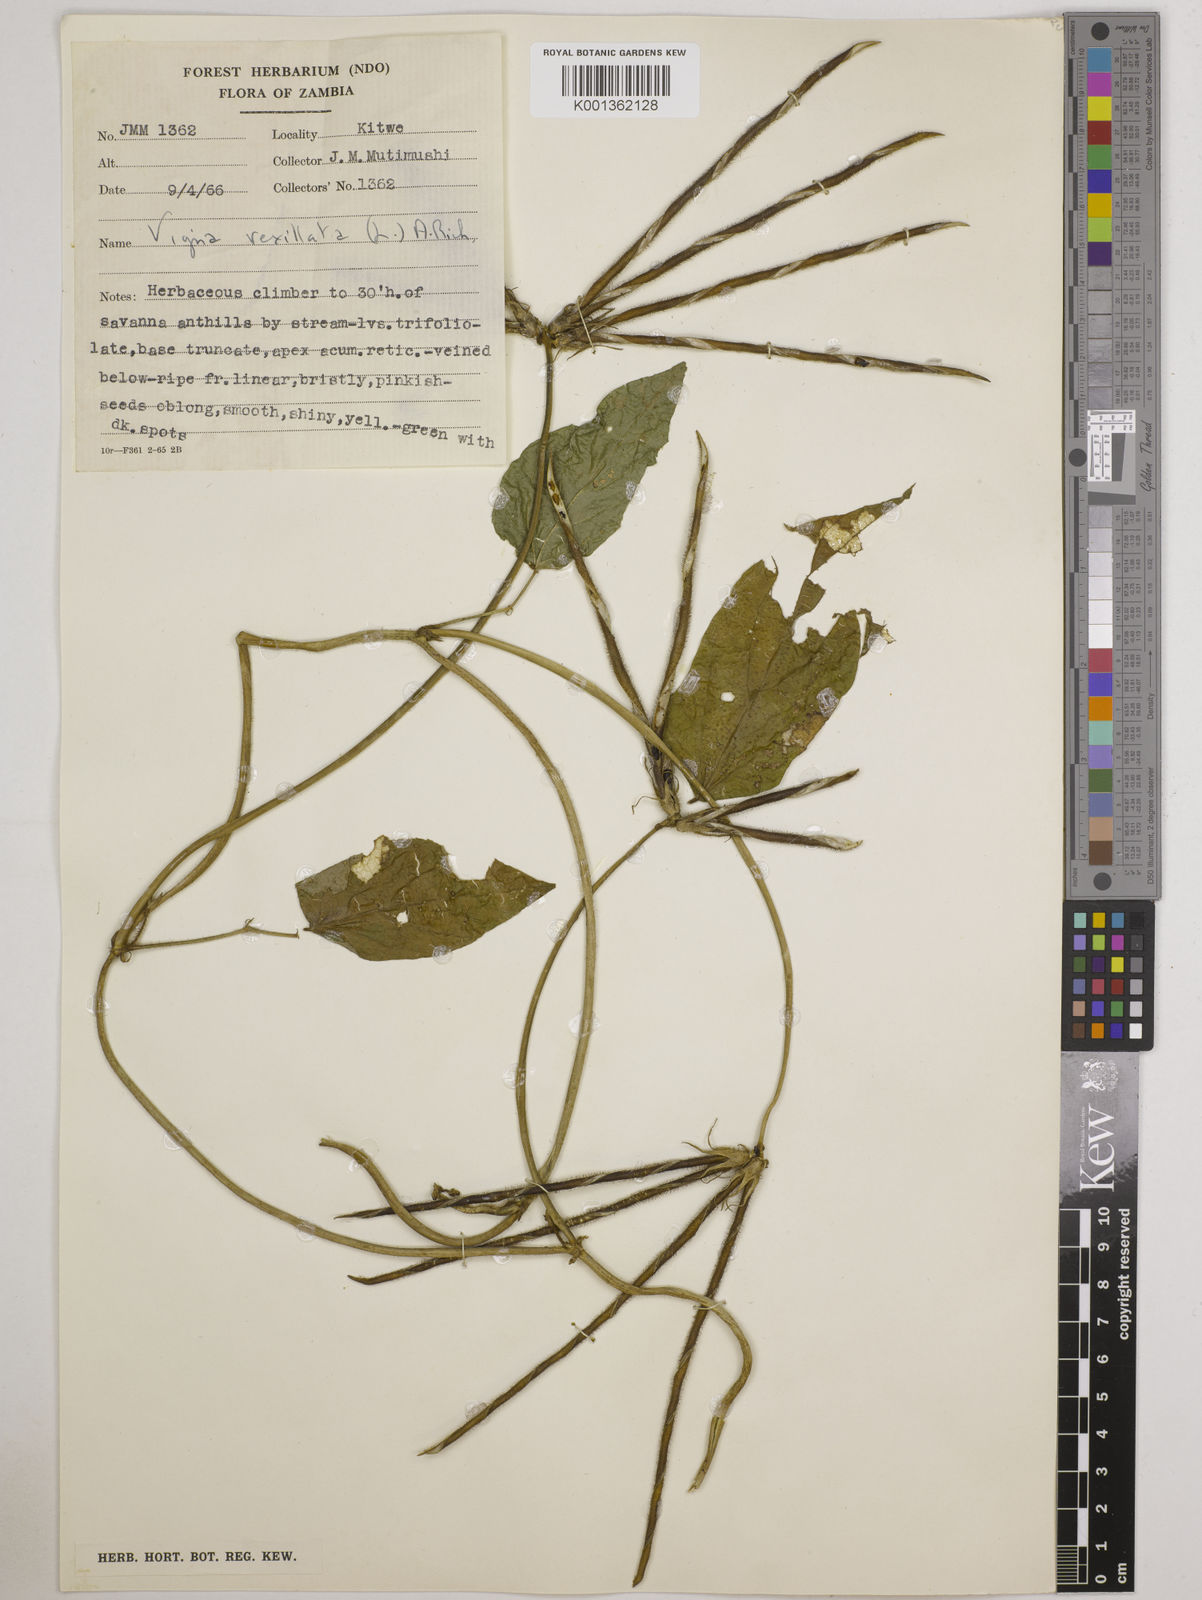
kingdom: Plantae
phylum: Tracheophyta
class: Magnoliopsida
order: Fabales
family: Fabaceae
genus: Vigna
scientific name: Vigna vexillata
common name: Zombi pea
